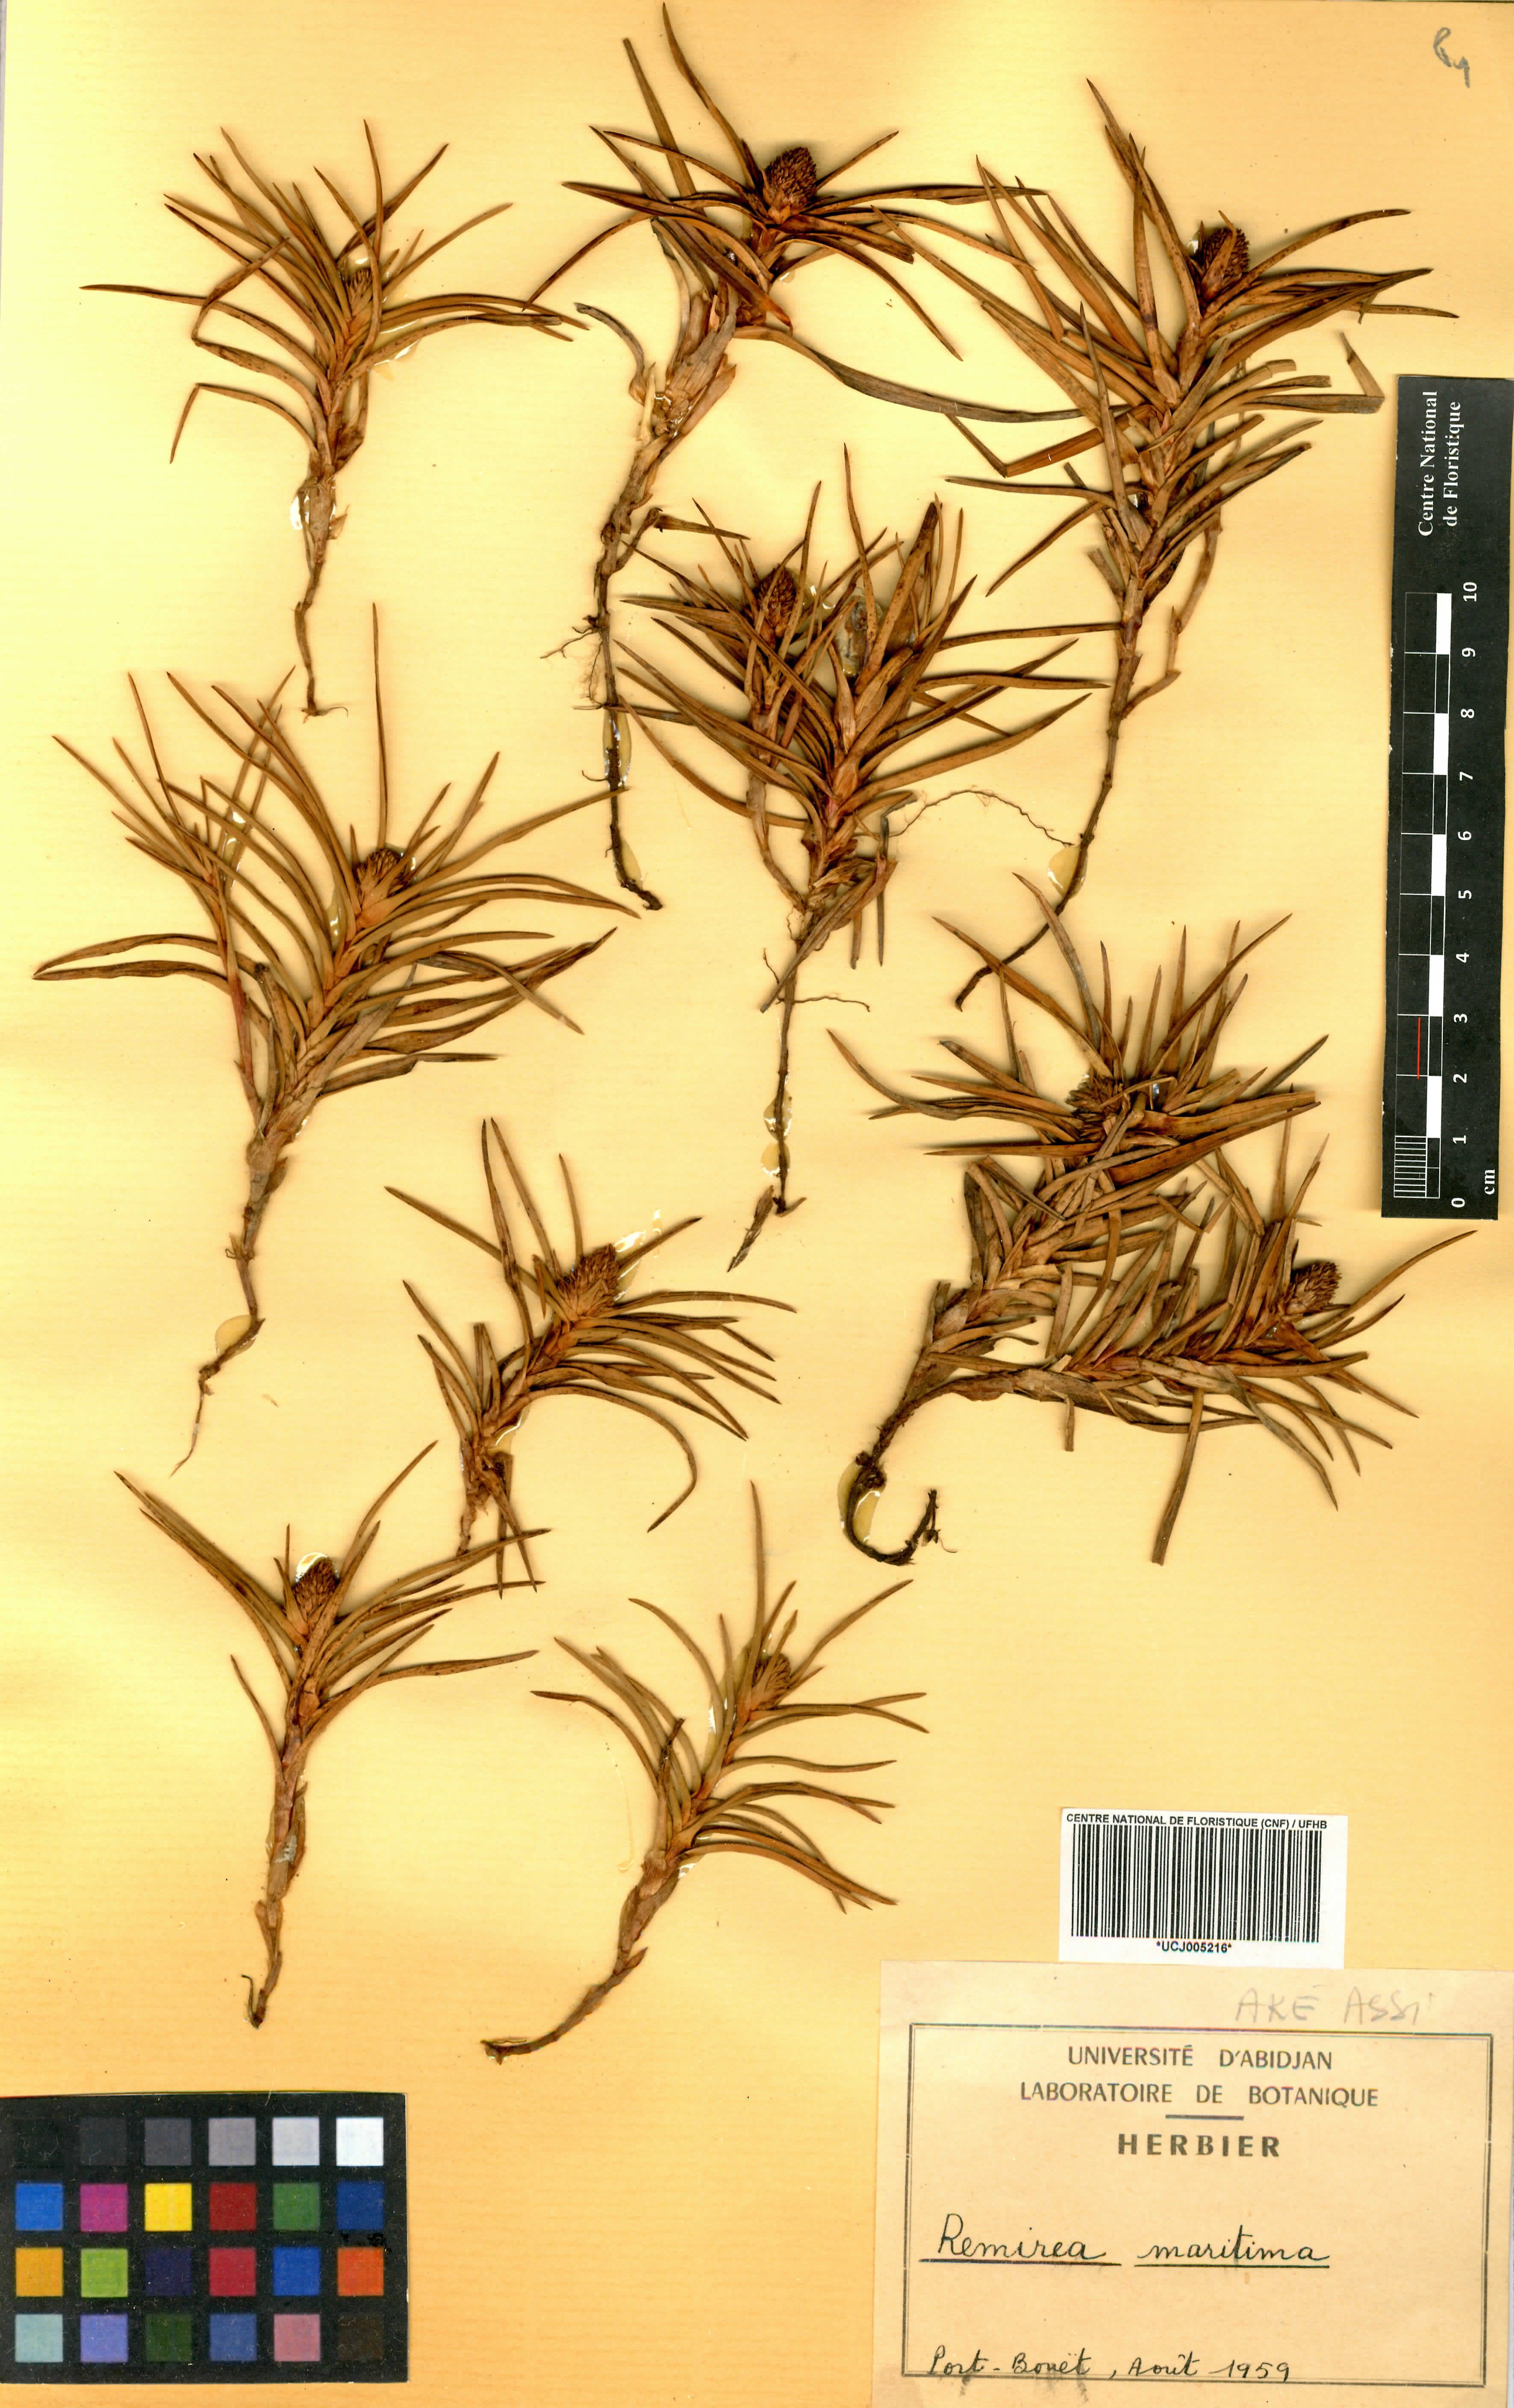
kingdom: Plantae
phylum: Tracheophyta
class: Liliopsida
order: Poales
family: Cyperaceae
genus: Rhynchospora
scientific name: Rhynchospora candida
